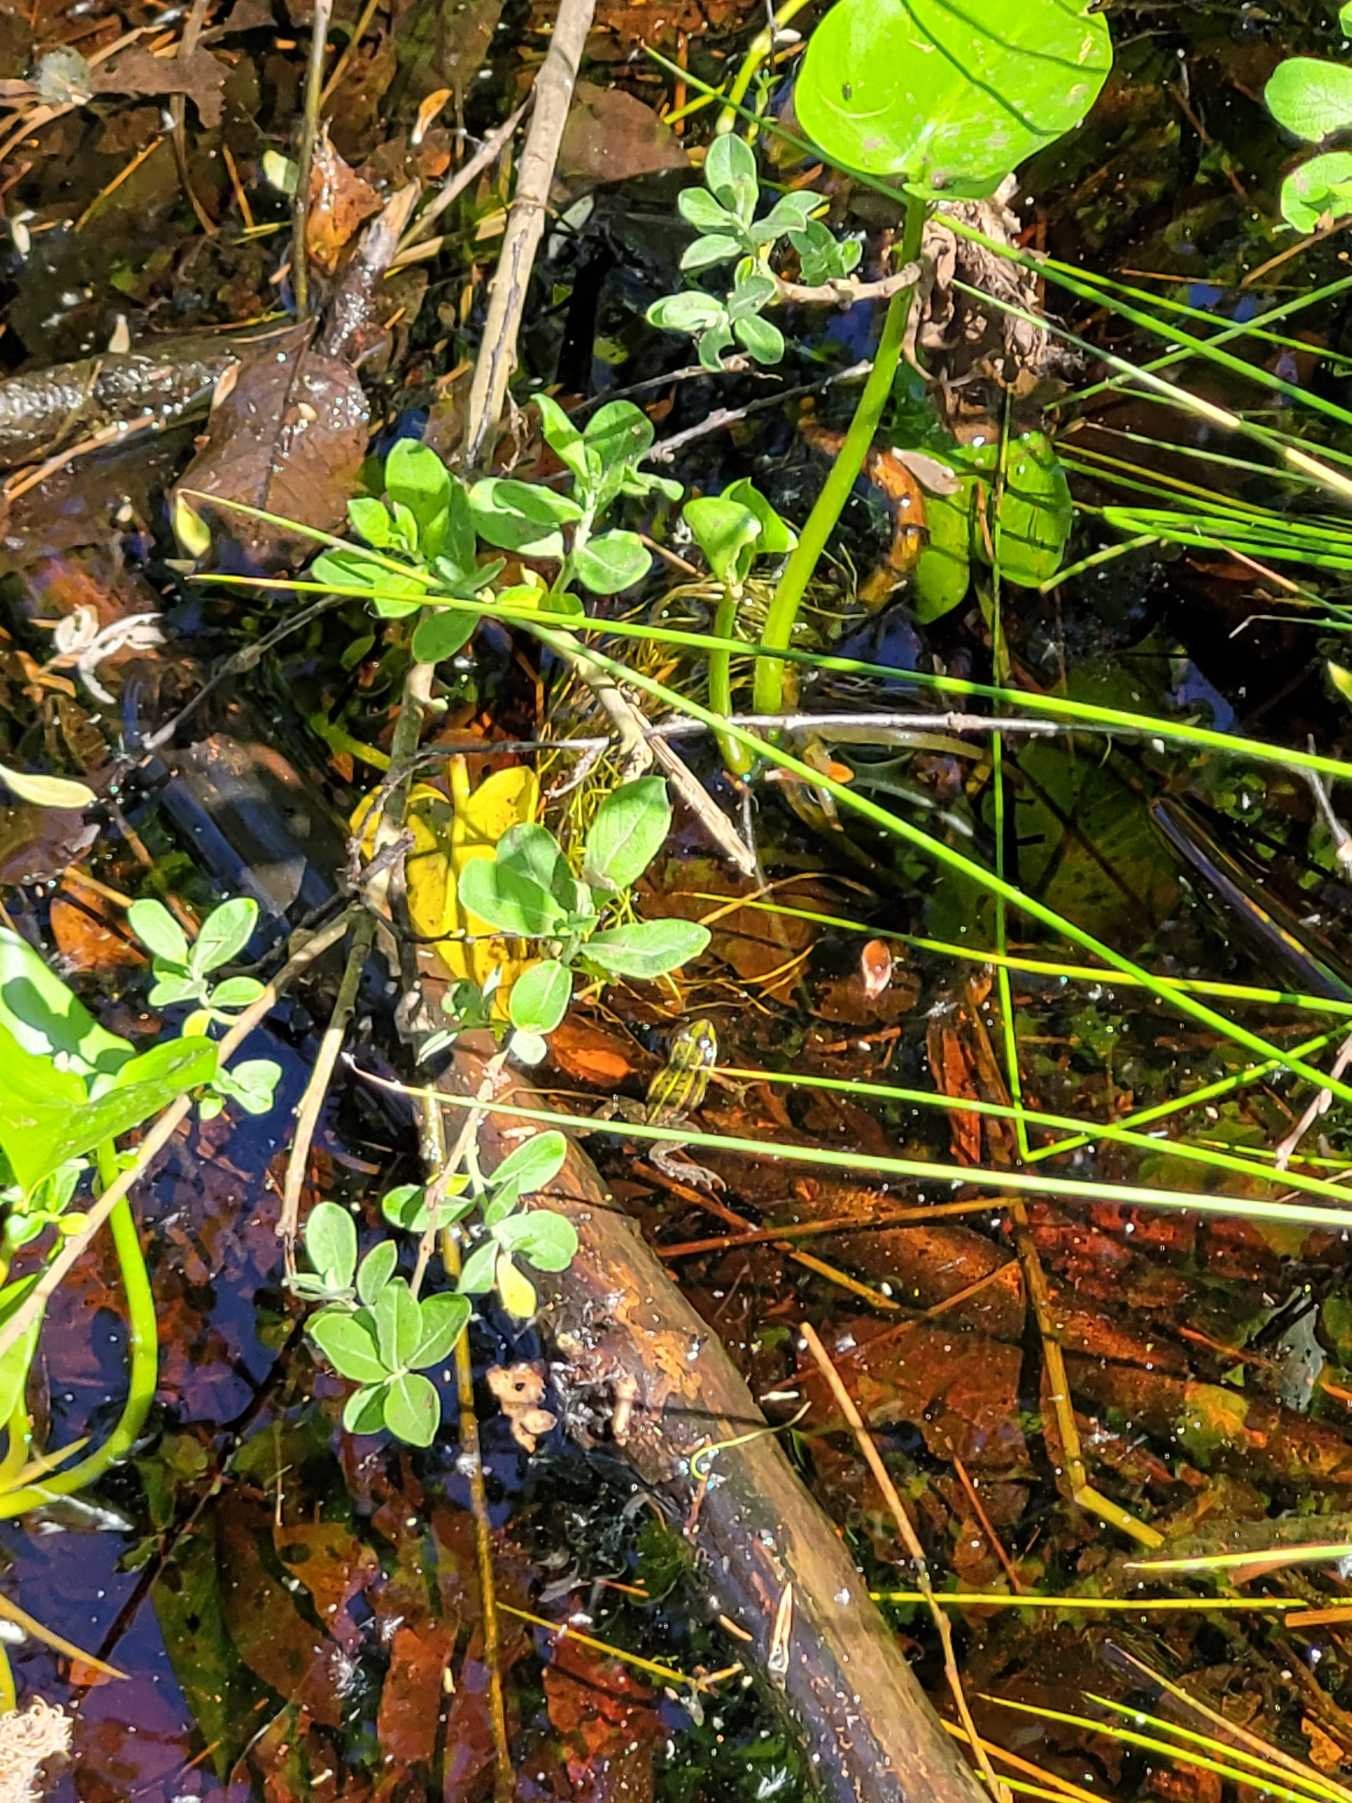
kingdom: Animalia
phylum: Chordata
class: Amphibia
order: Anura
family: Ranidae
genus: Pelophylax
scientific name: Pelophylax lessonae
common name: Grøn frø
